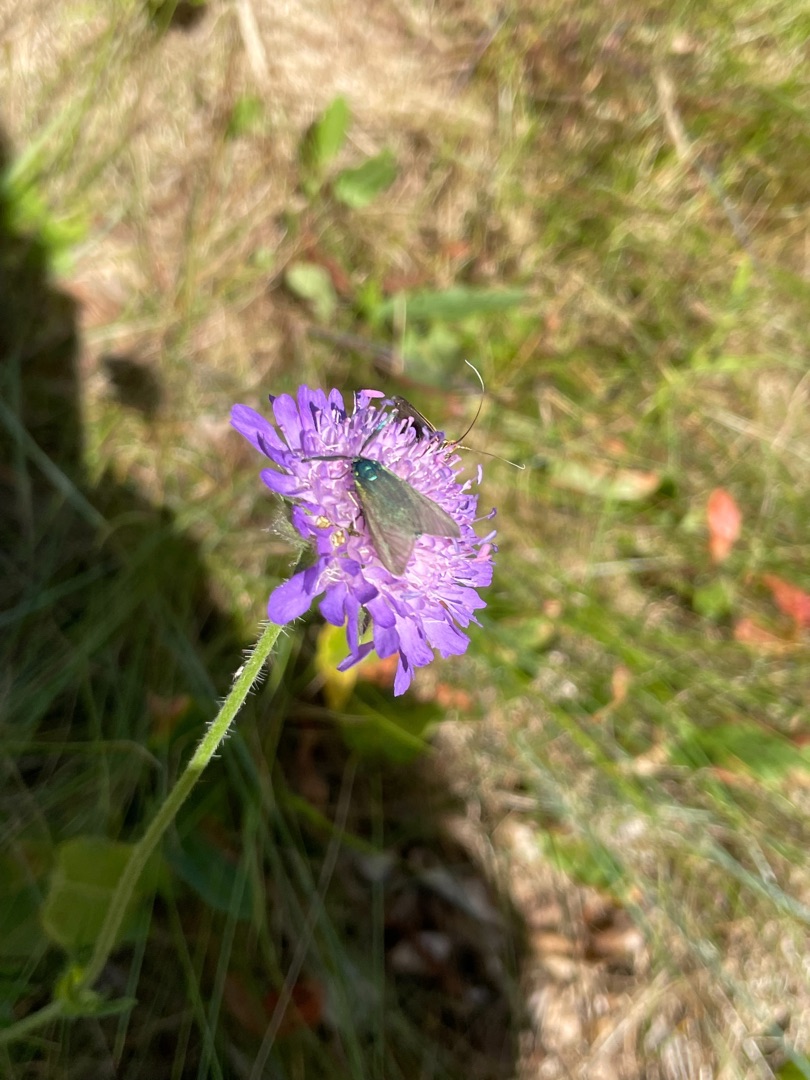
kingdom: Animalia
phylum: Arthropoda
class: Insecta
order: Lepidoptera
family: Zygaenidae
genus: Adscita
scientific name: Adscita statices
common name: Metalvinge
